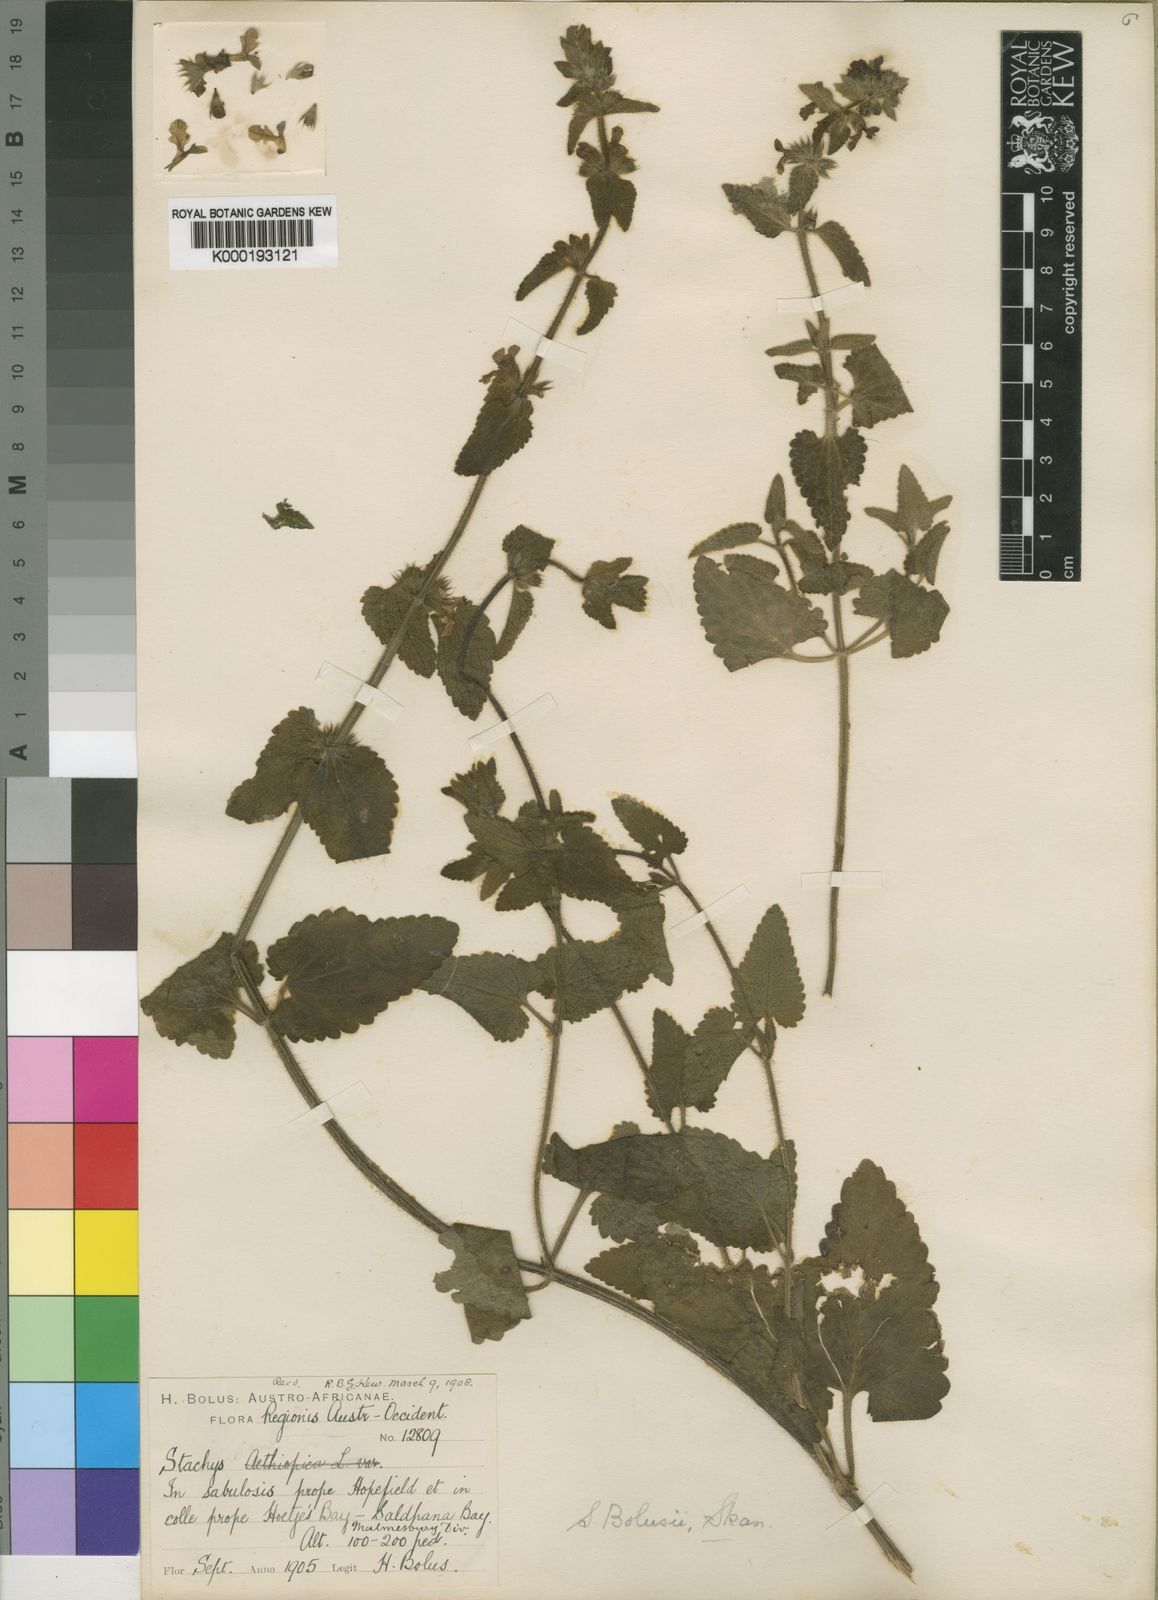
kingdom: Plantae
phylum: Tracheophyta
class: Magnoliopsida
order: Lamiales
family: Lamiaceae
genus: Stachys
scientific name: Stachys bolusii
